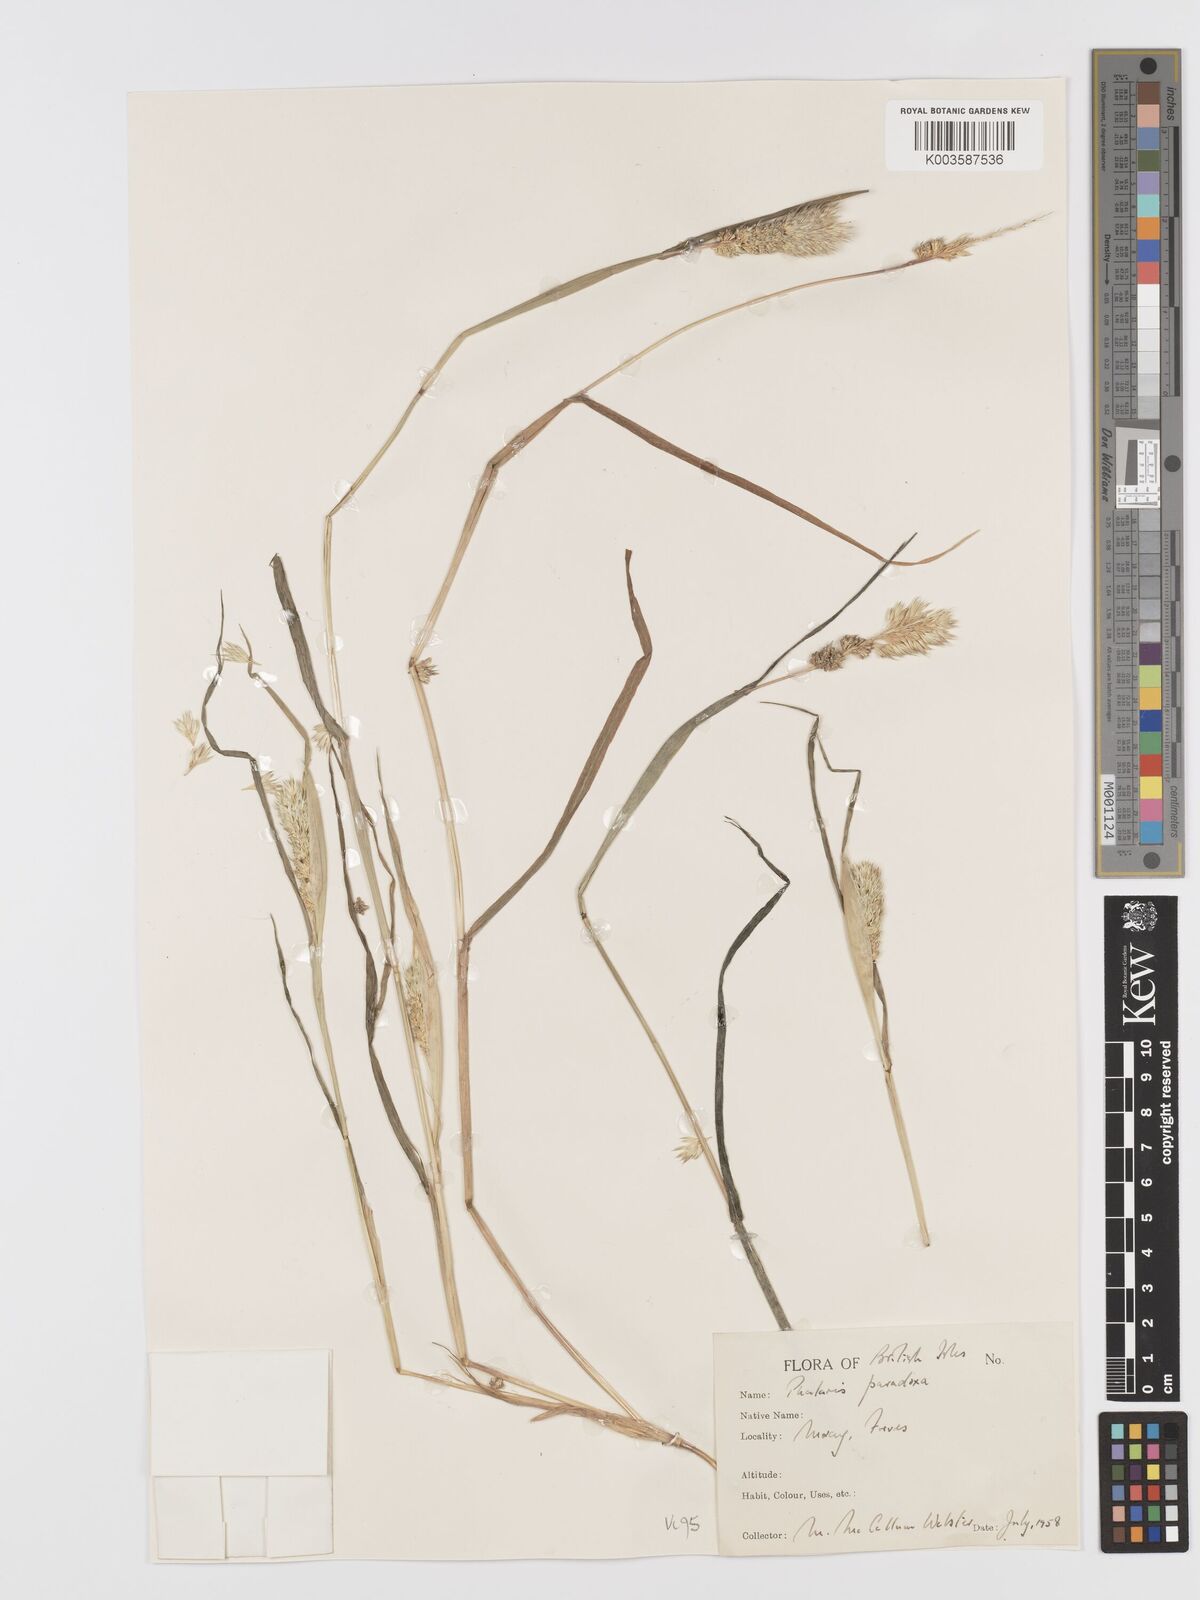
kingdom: Plantae
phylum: Tracheophyta
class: Liliopsida
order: Poales
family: Poaceae
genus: Phalaris
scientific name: Phalaris paradoxa
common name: Awned canary-grass
